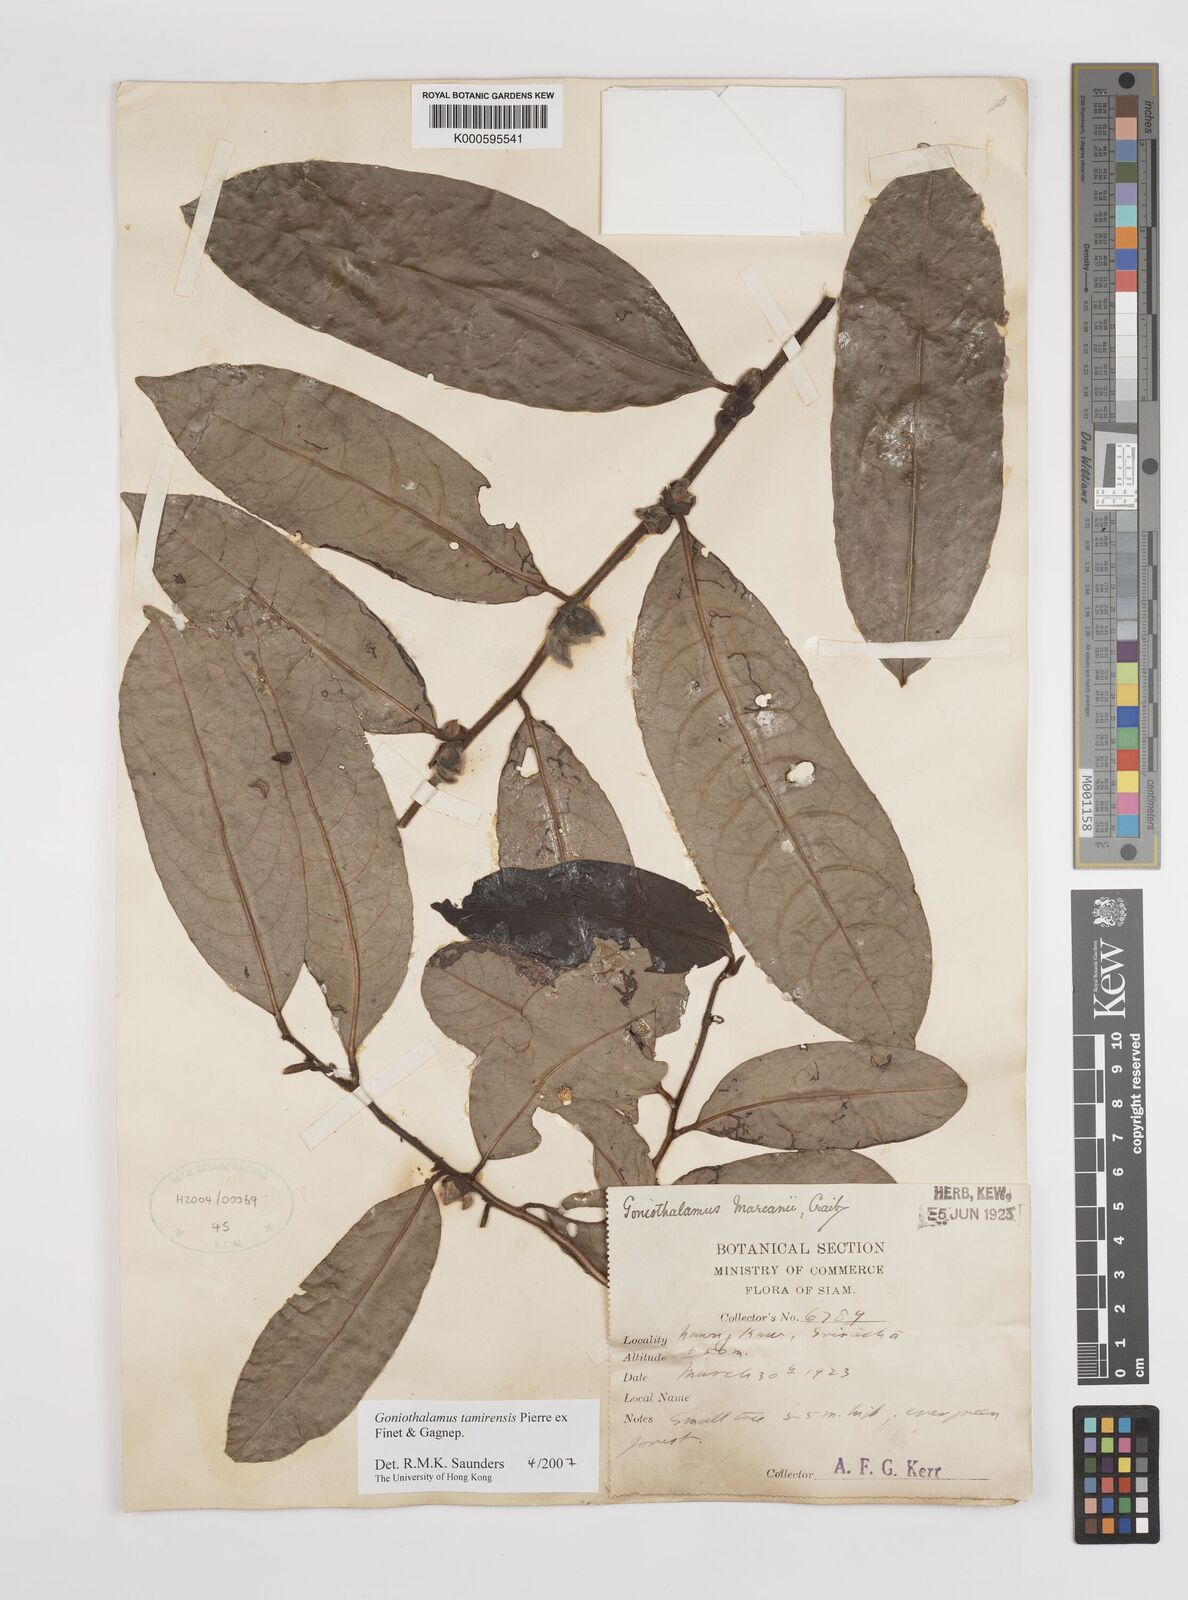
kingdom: Plantae
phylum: Tracheophyta
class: Magnoliopsida
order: Magnoliales
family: Annonaceae
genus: Goniothalamus
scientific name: Goniothalamus tamirensis
